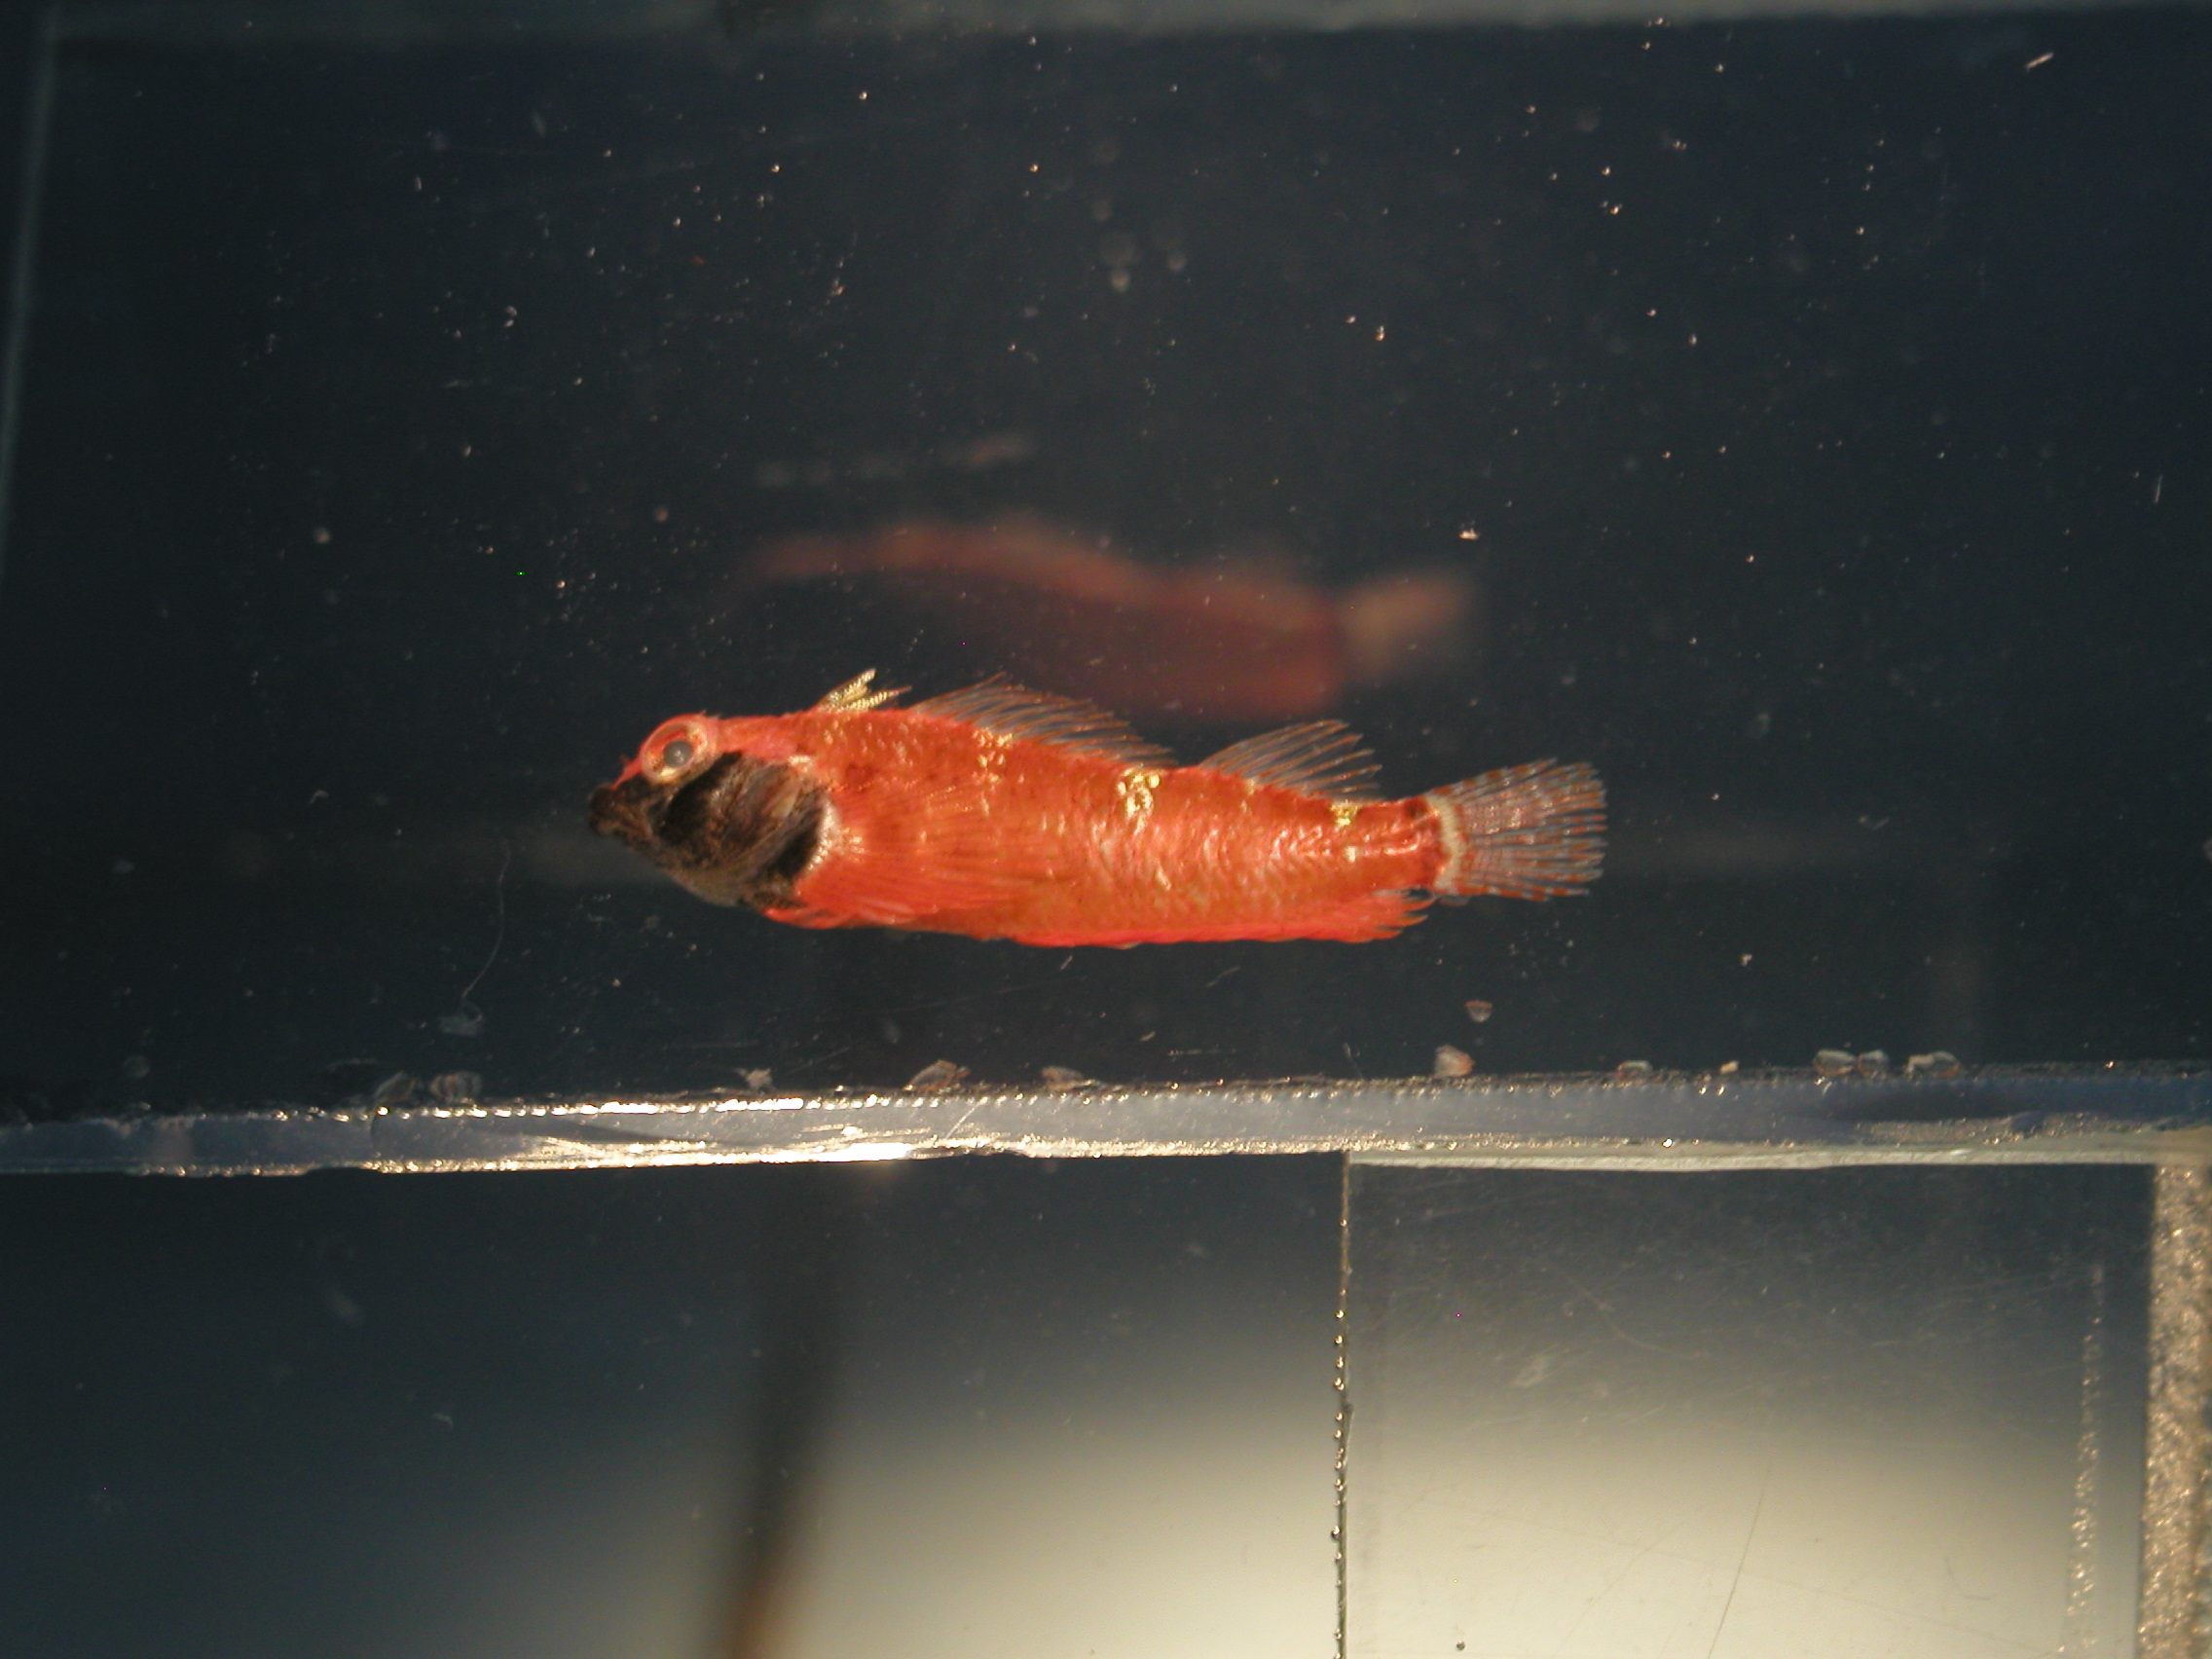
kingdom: Animalia
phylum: Chordata
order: Perciformes
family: Tripterygiidae
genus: Enneapterygius
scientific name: Enneapterygius elegans
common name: Elegant triplefin
